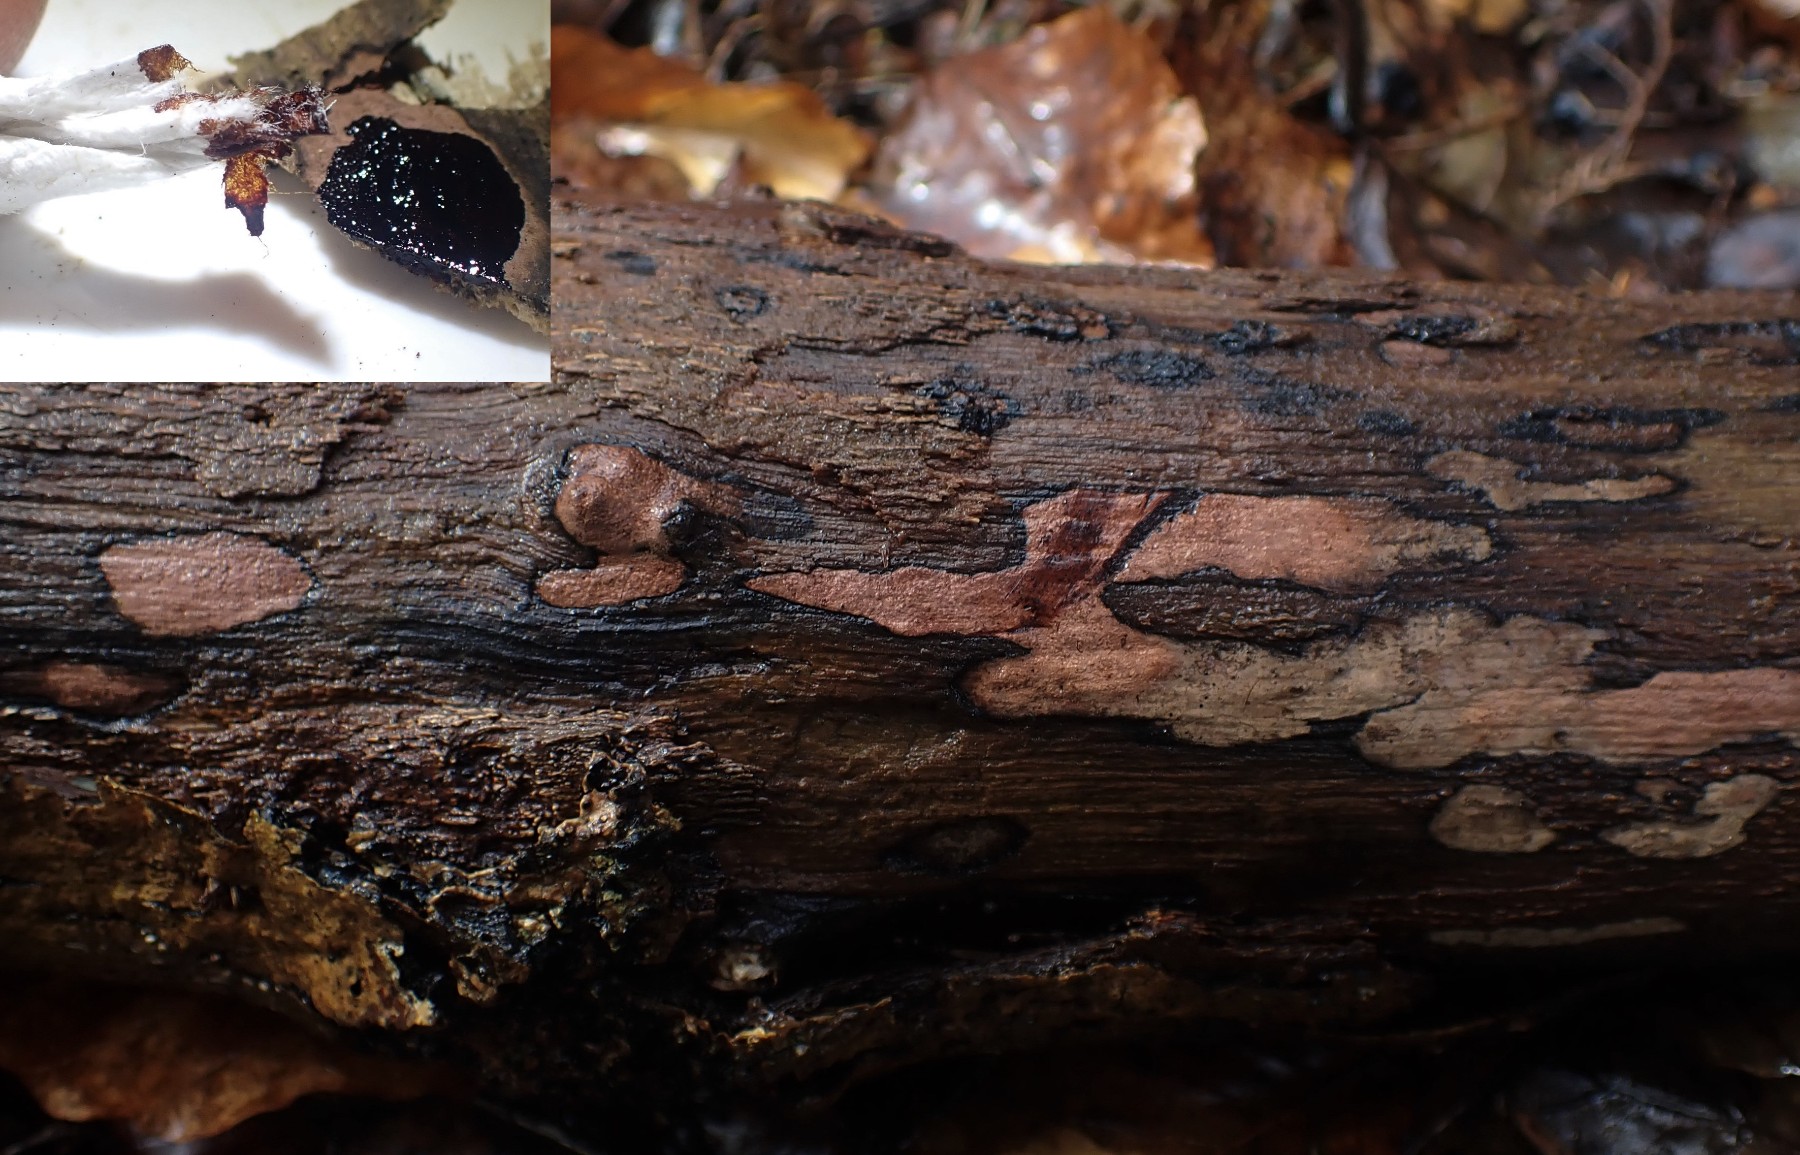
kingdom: Fungi
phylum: Ascomycota
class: Sordariomycetes
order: Xylariales
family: Hypoxylaceae
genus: Hypoxylon
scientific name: Hypoxylon petriniae
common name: nedsænket kulbær
